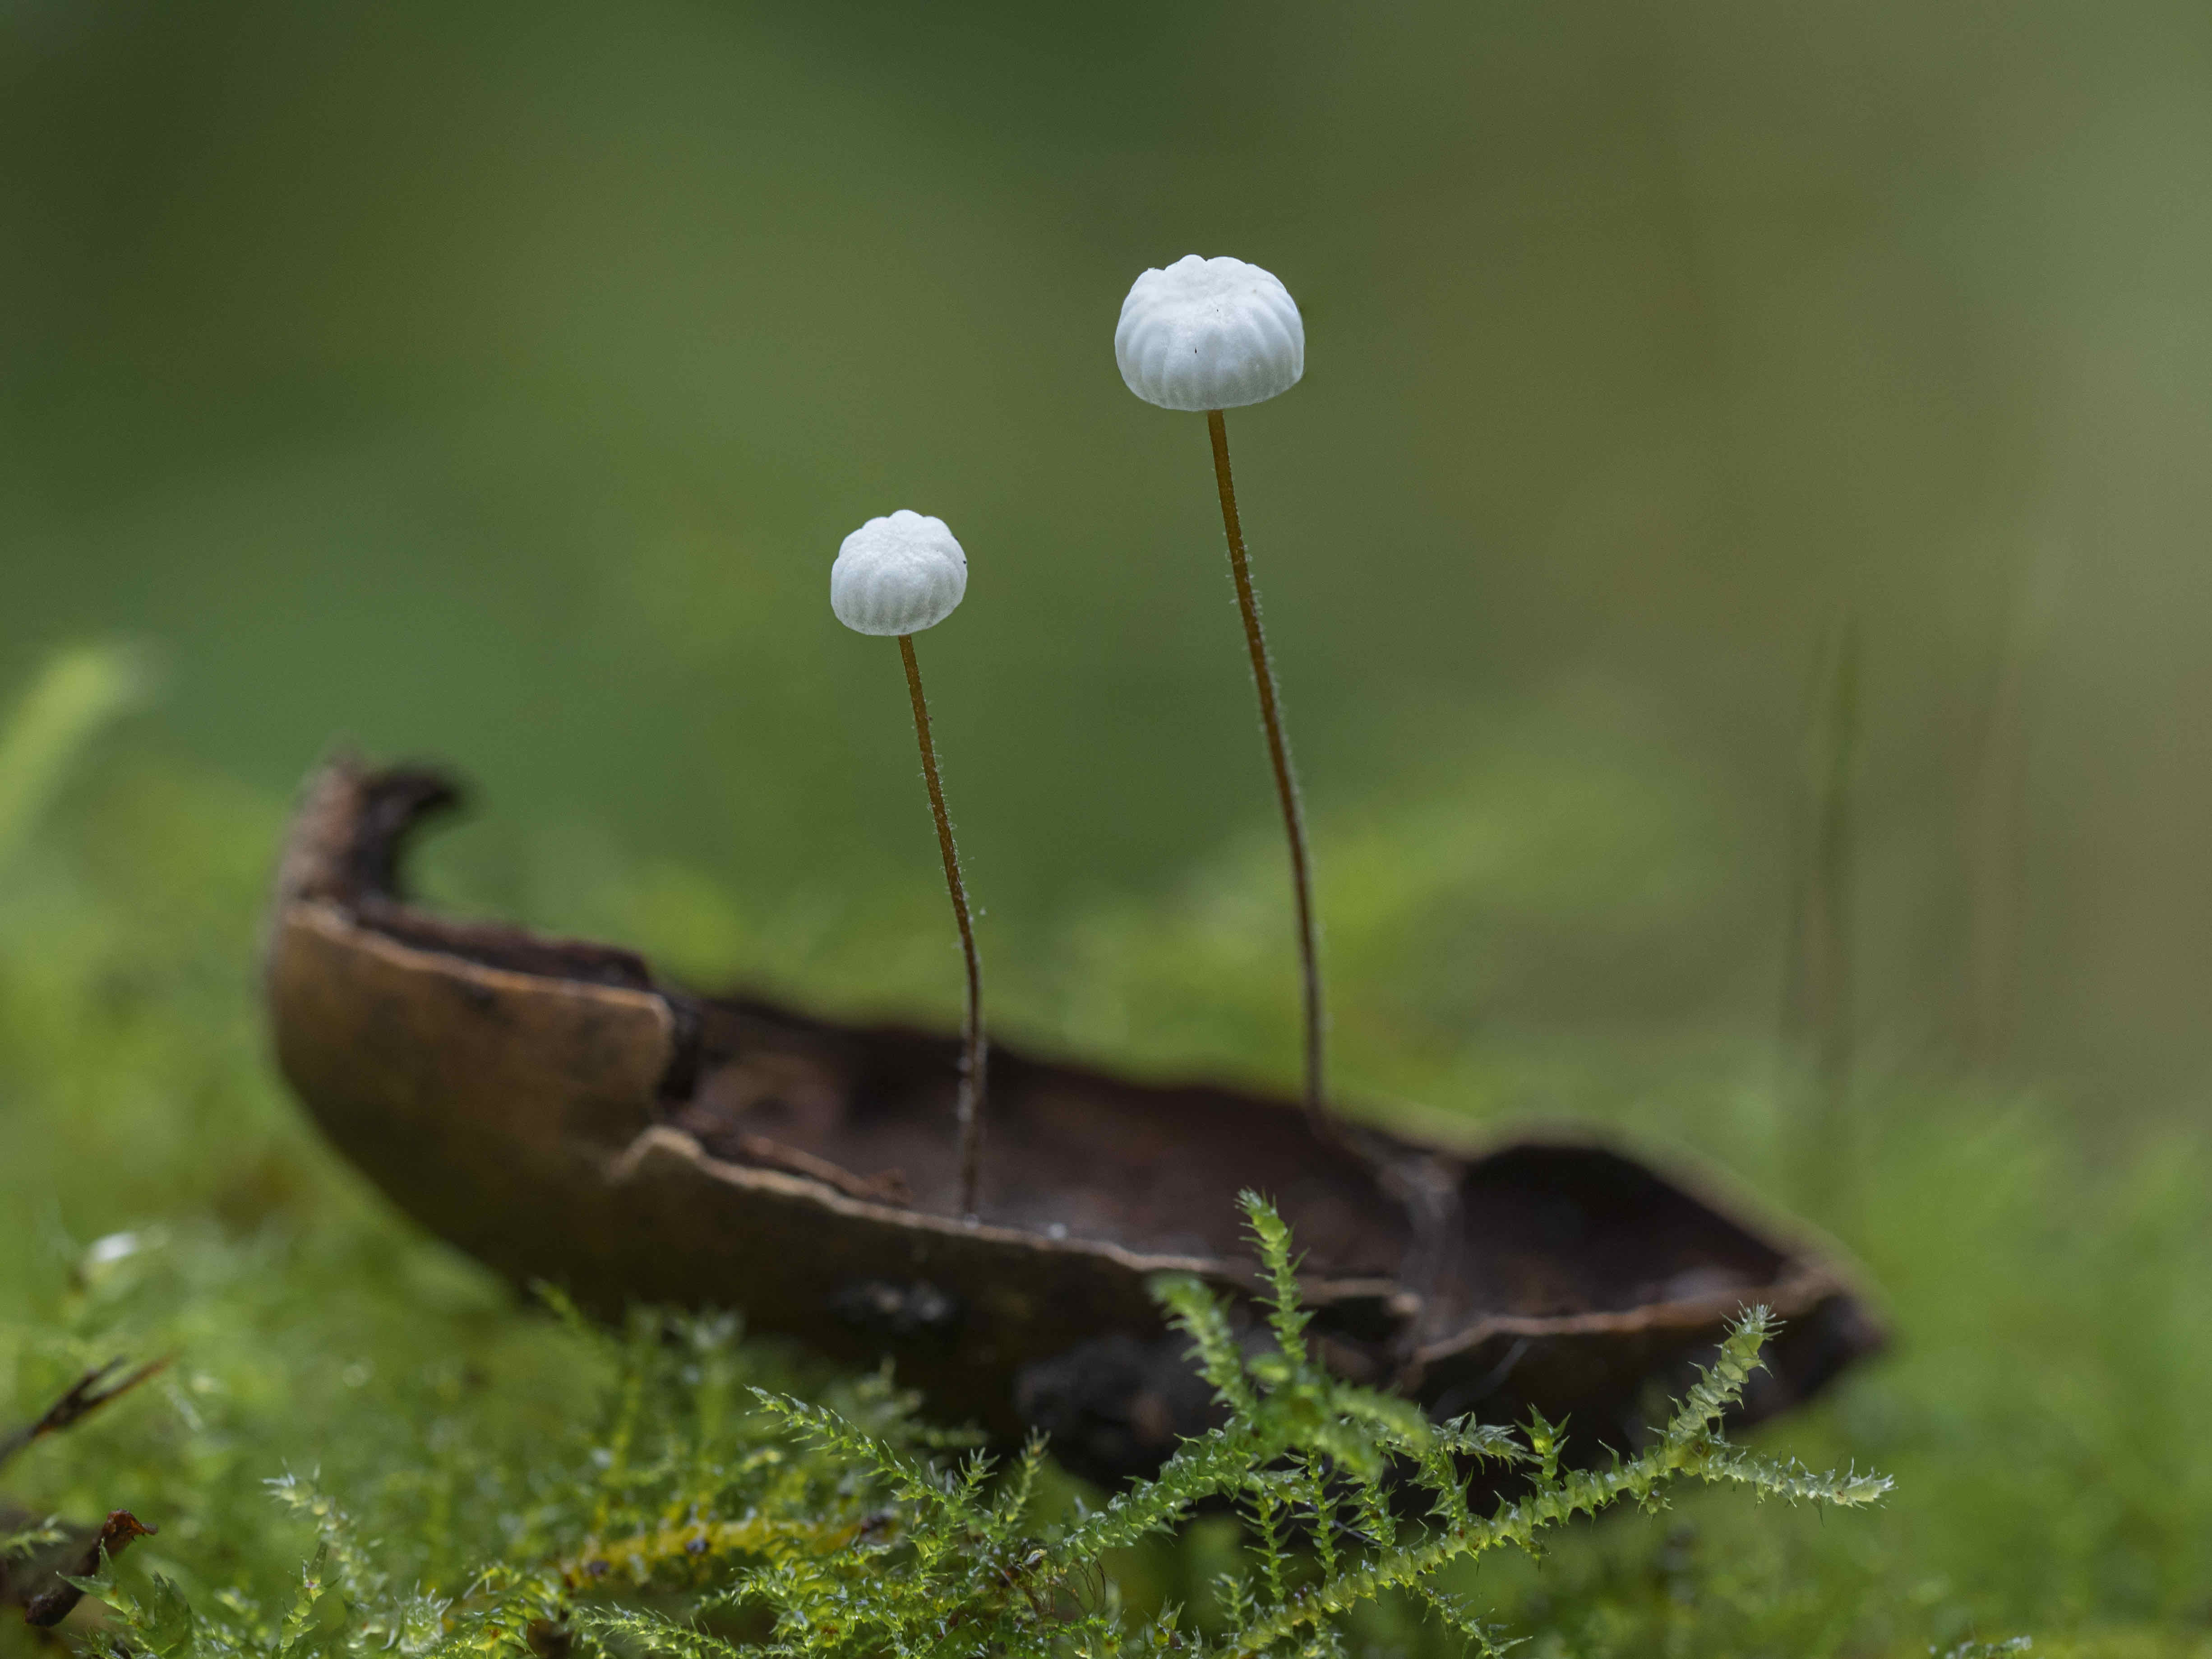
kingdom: Fungi
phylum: Basidiomycota
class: Agaricomycetes
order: Agaricales
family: Physalacriaceae
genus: Rhizomarasmius
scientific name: Rhizomarasmius setosus
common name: bøgeblads-bruskhat
